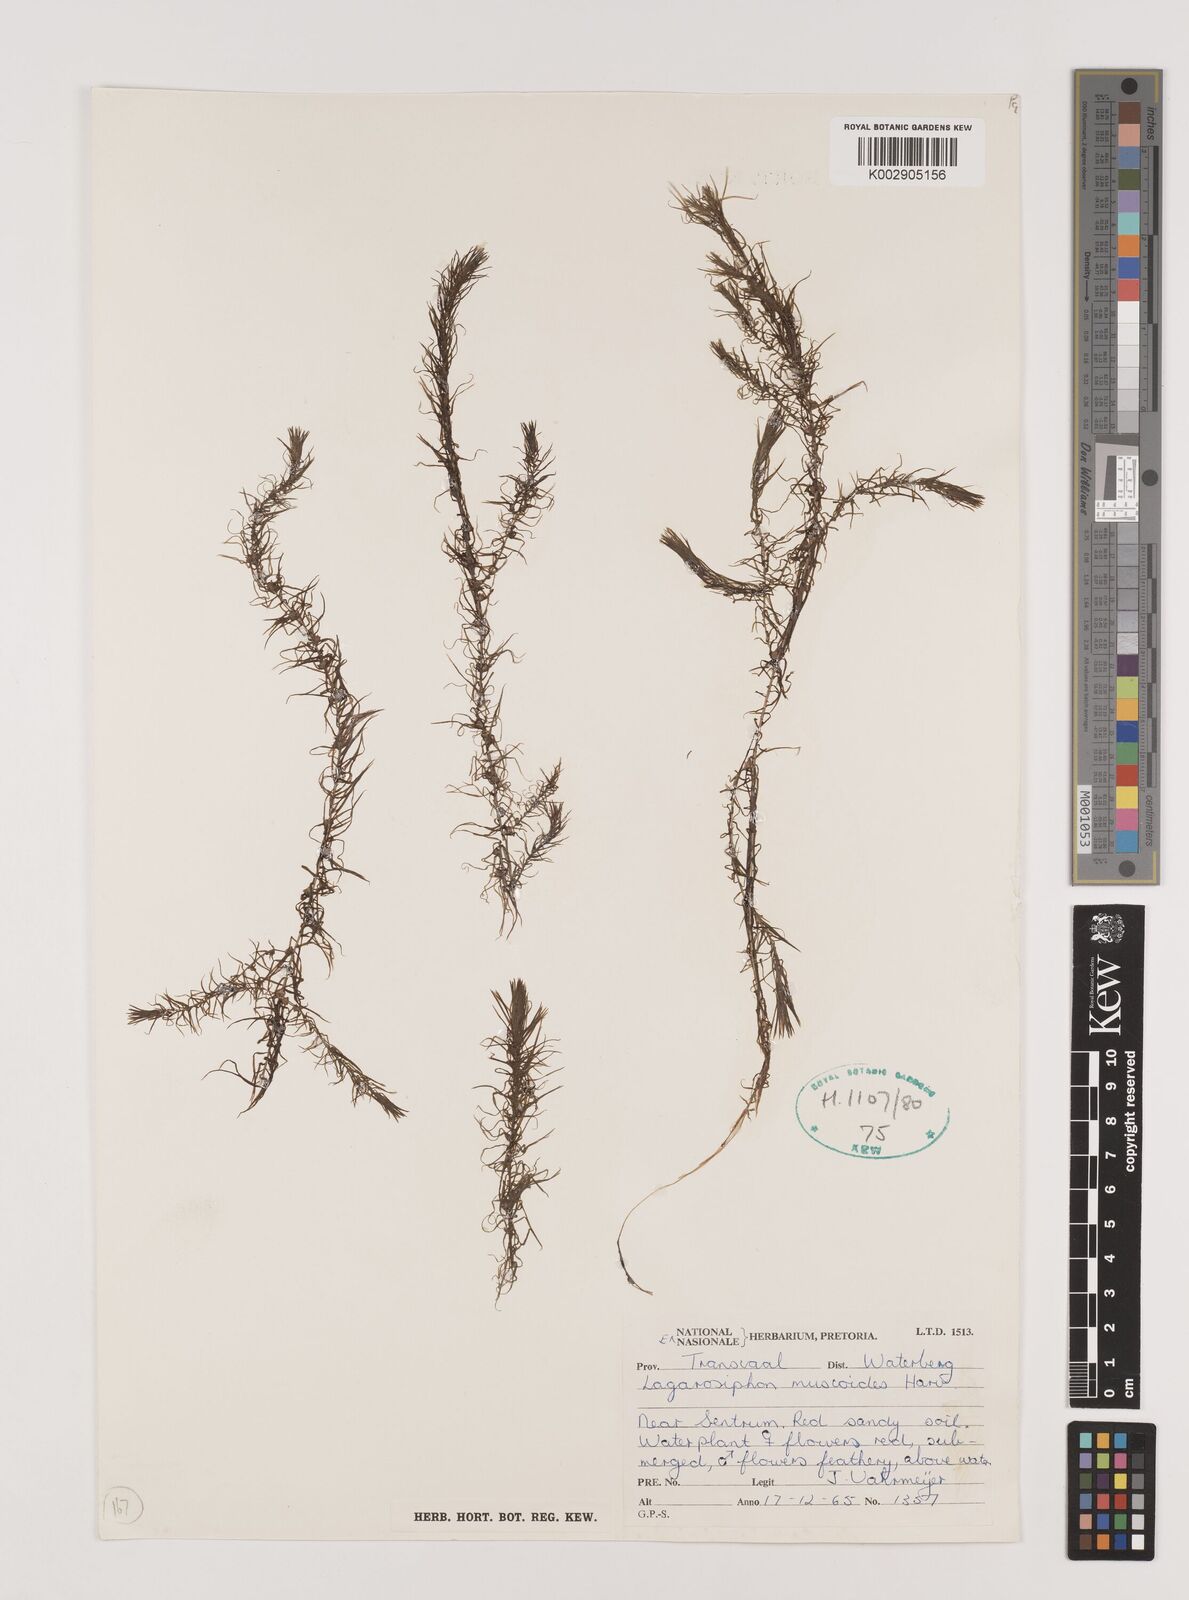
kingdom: Plantae
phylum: Tracheophyta
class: Liliopsida
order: Alismatales
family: Hydrocharitaceae
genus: Lagarosiphon
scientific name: Lagarosiphon muscoides
